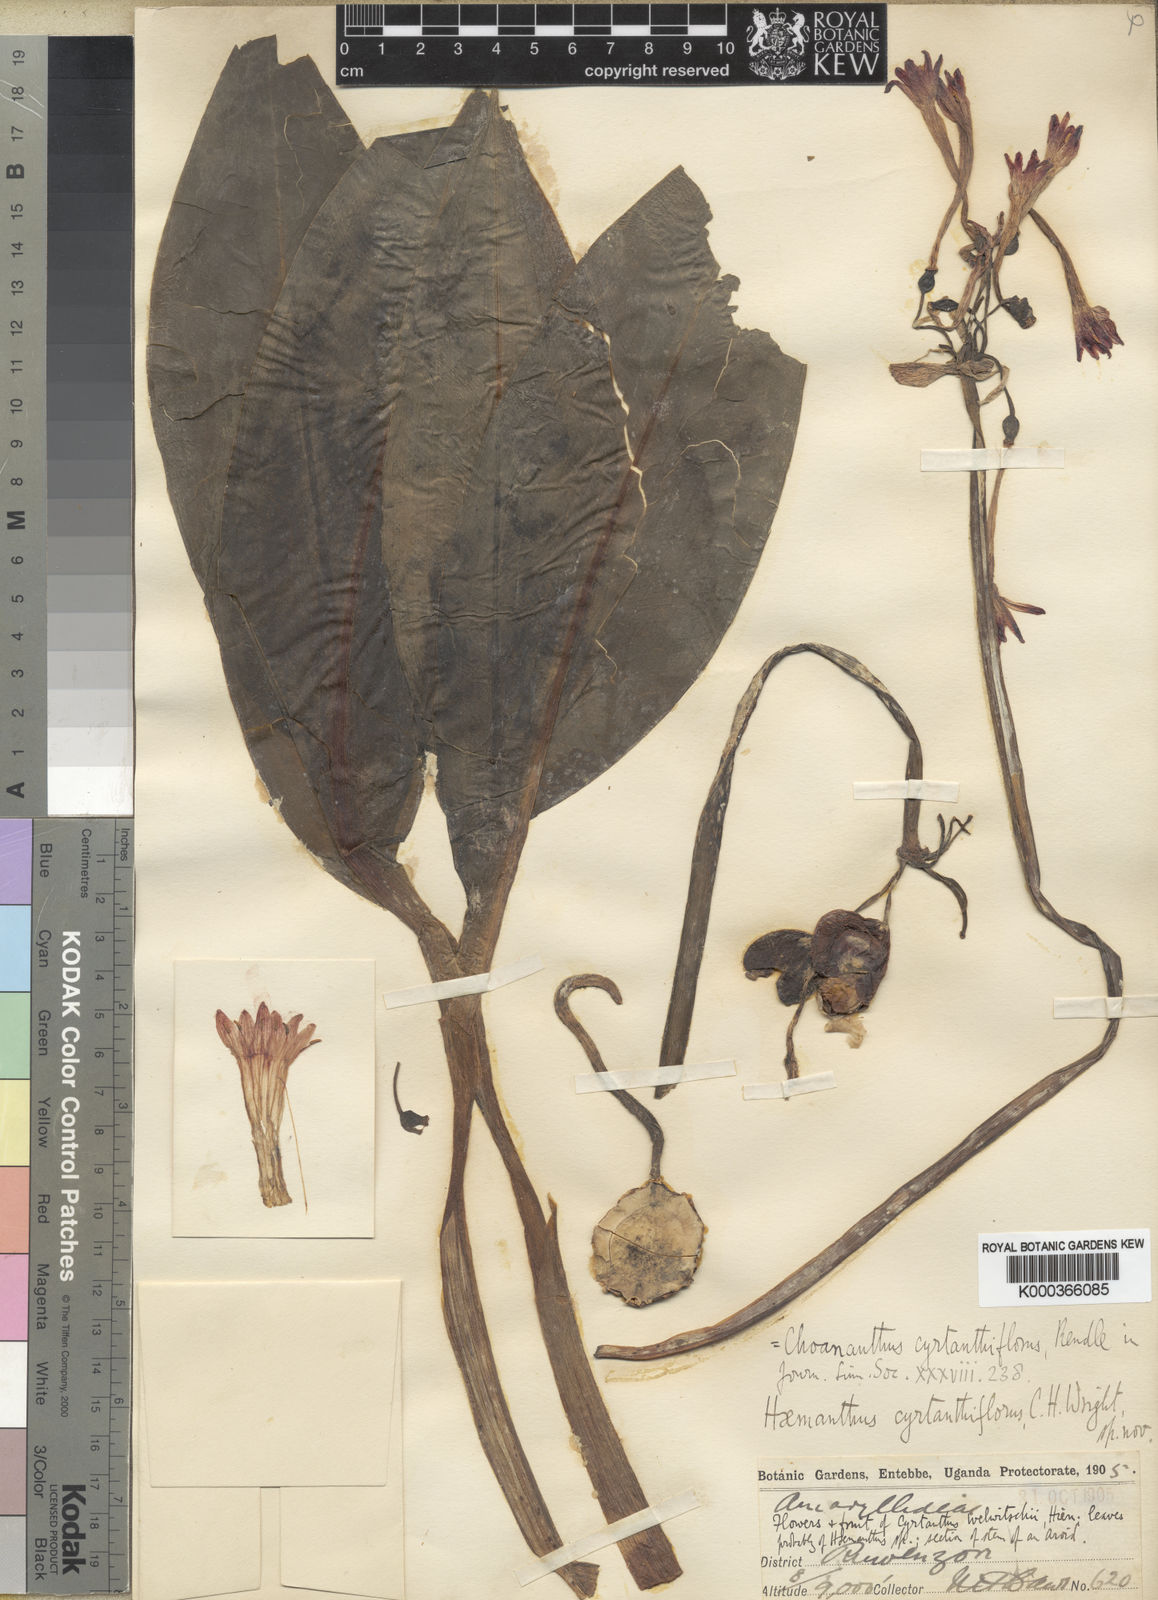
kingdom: Plantae
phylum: Tracheophyta
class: Liliopsida
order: Asparagales
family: Amaryllidaceae
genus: Scadoxus
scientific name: Scadoxus cyrtanthiflorus
